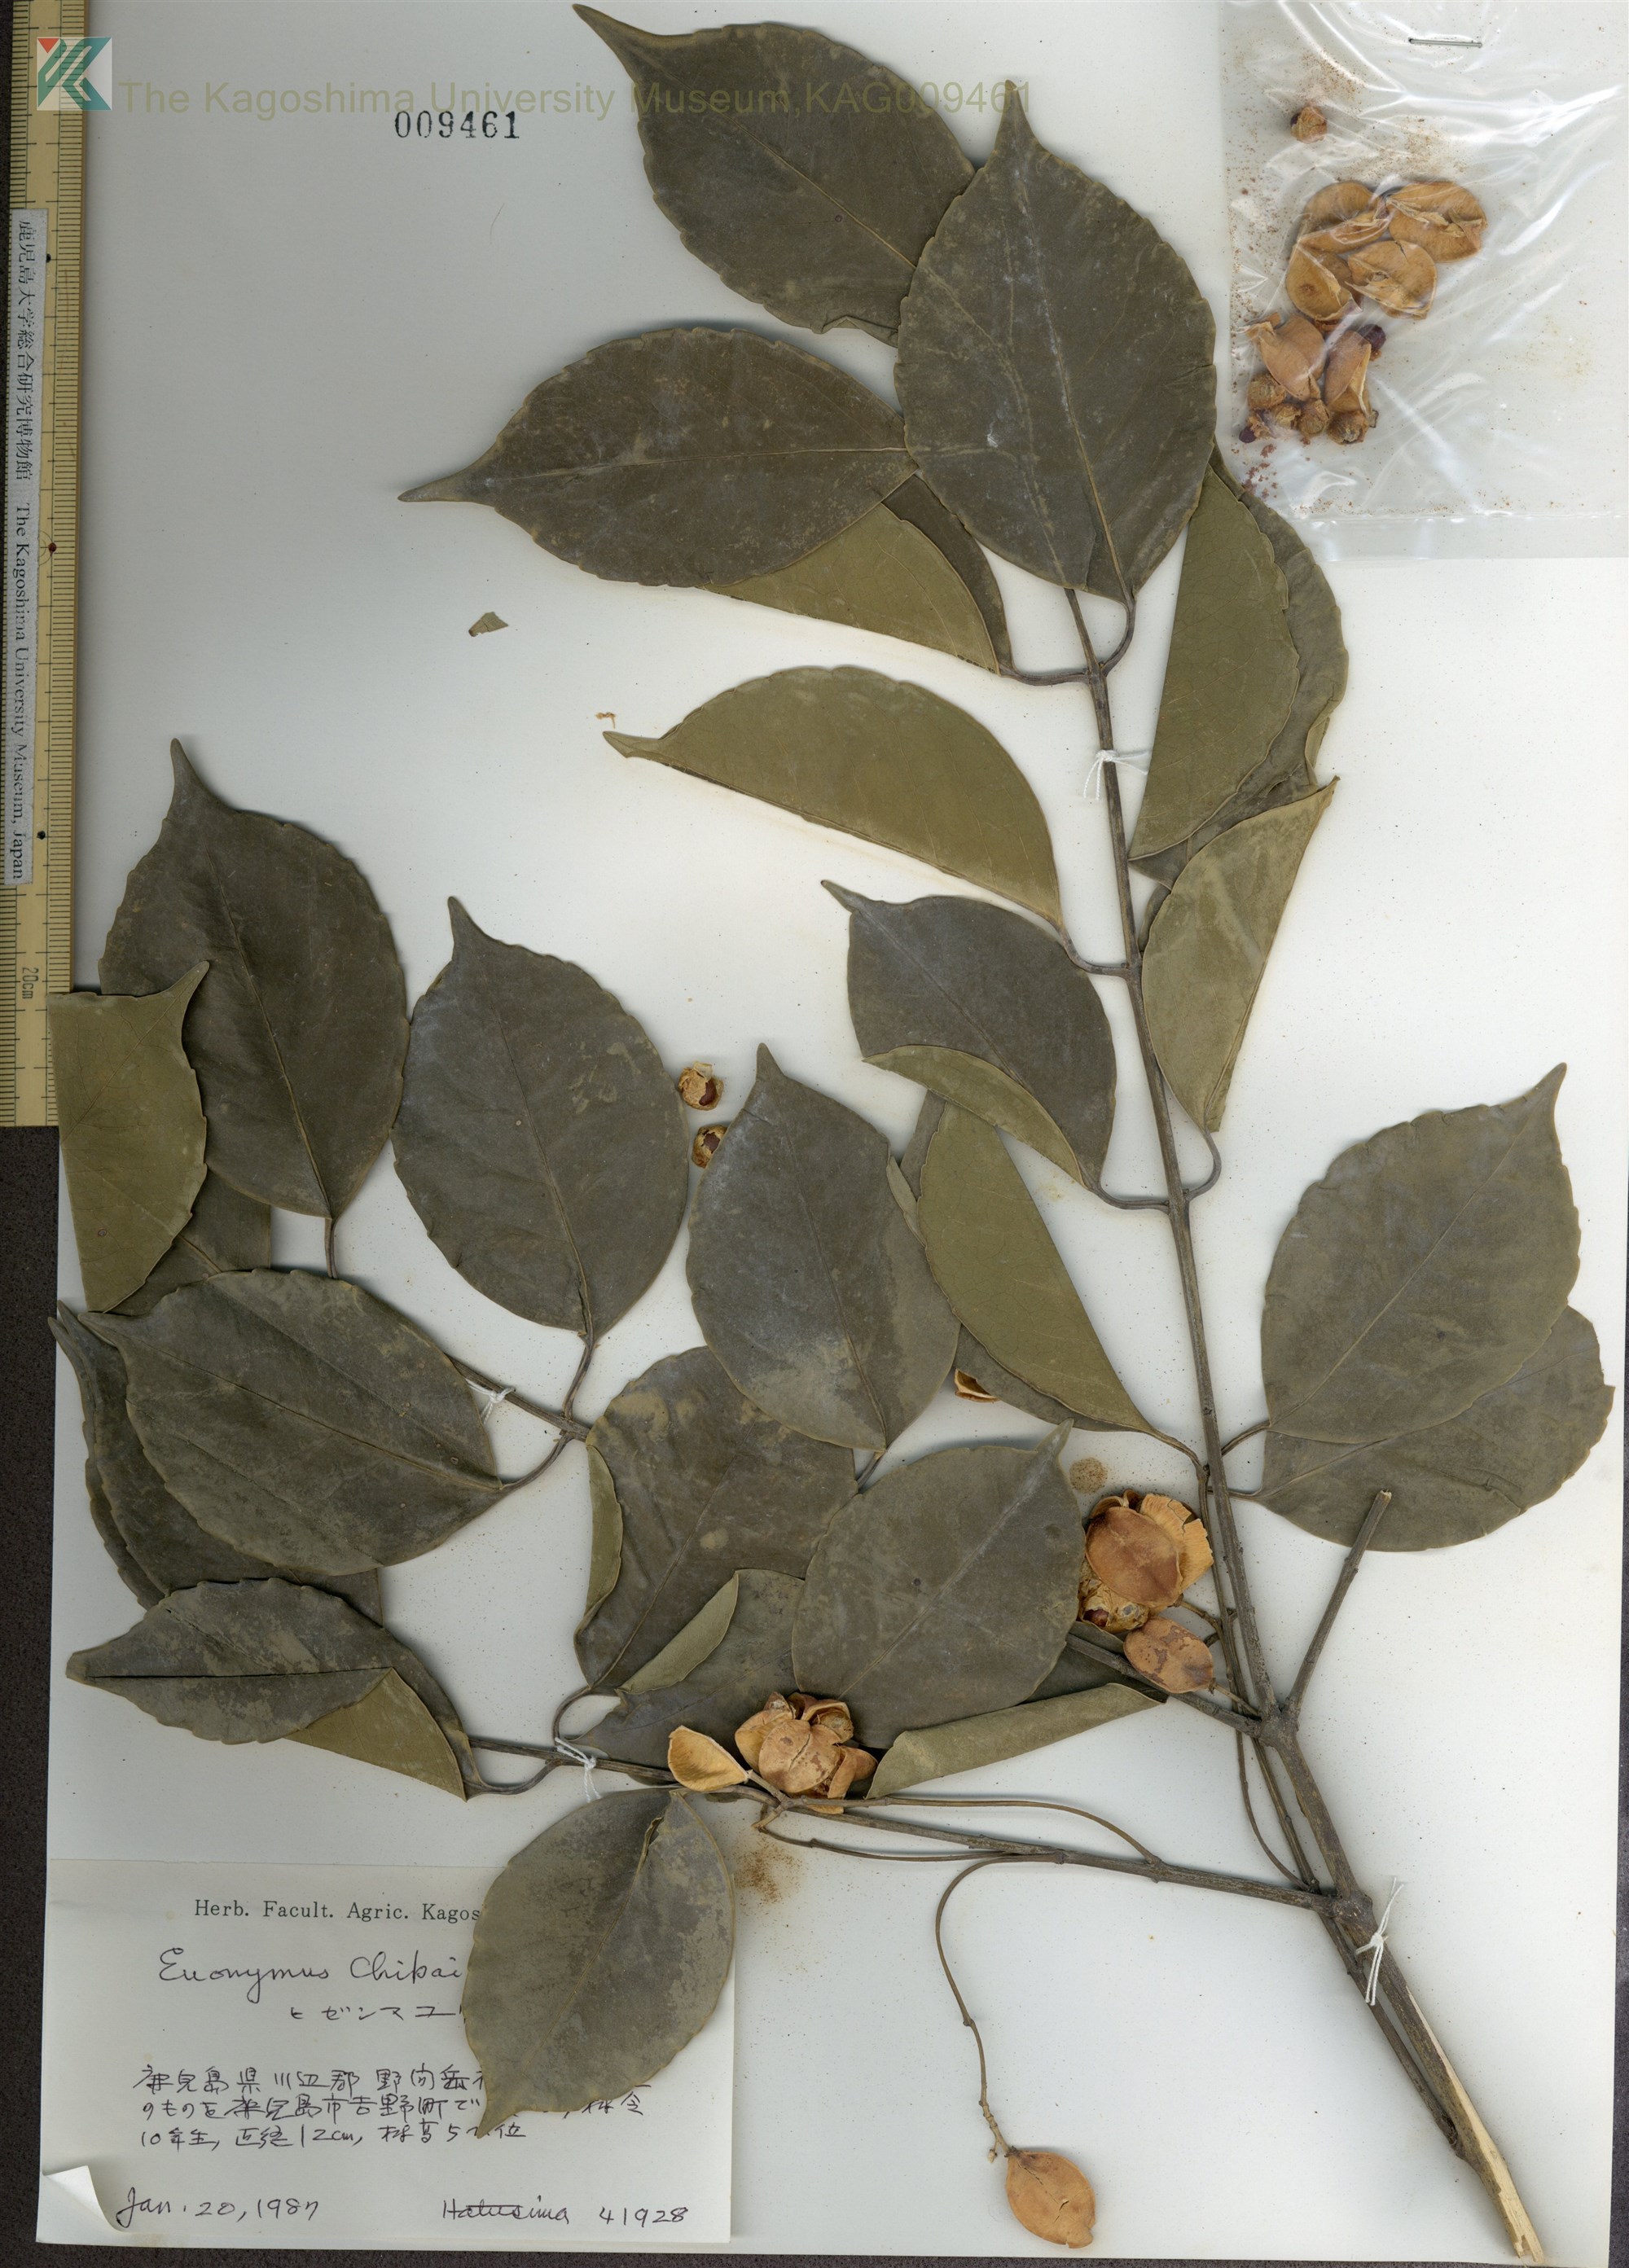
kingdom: Plantae
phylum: Tracheophyta
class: Magnoliopsida
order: Celastrales
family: Celastraceae
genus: Euonymus
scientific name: Euonymus chibae
